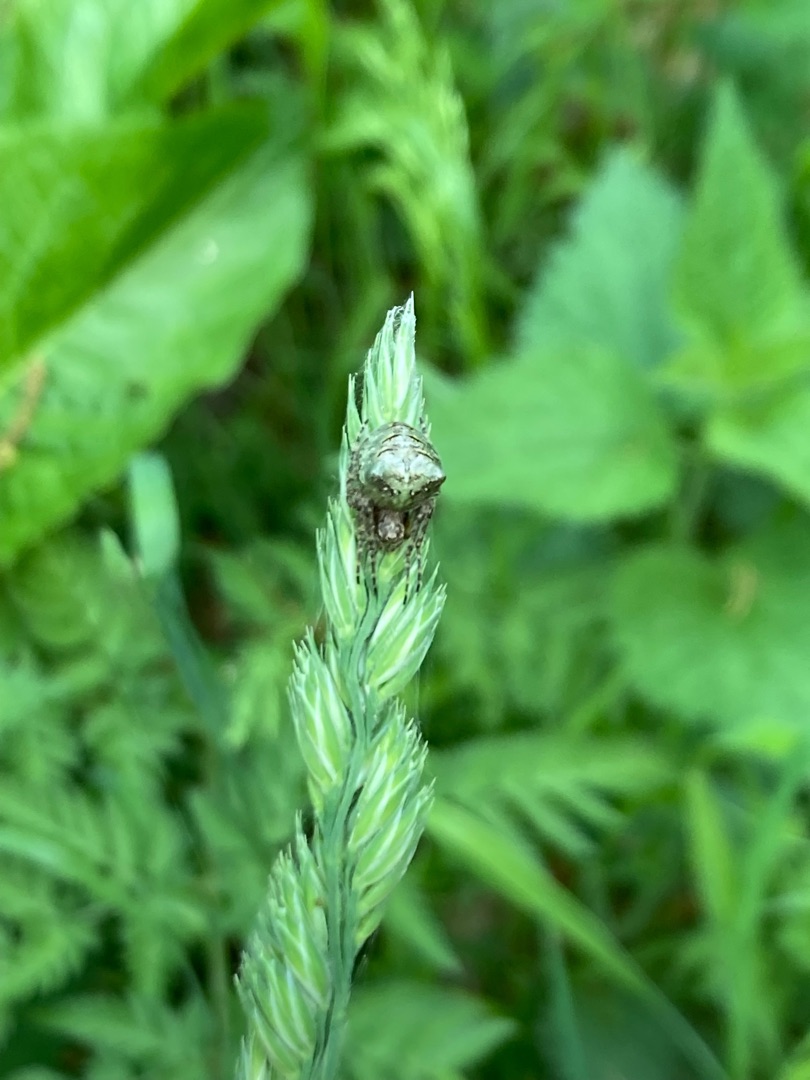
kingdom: Animalia
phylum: Arthropoda
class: Arachnida
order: Araneae
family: Araneidae
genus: Gibbaranea
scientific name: Gibbaranea gibbosa
